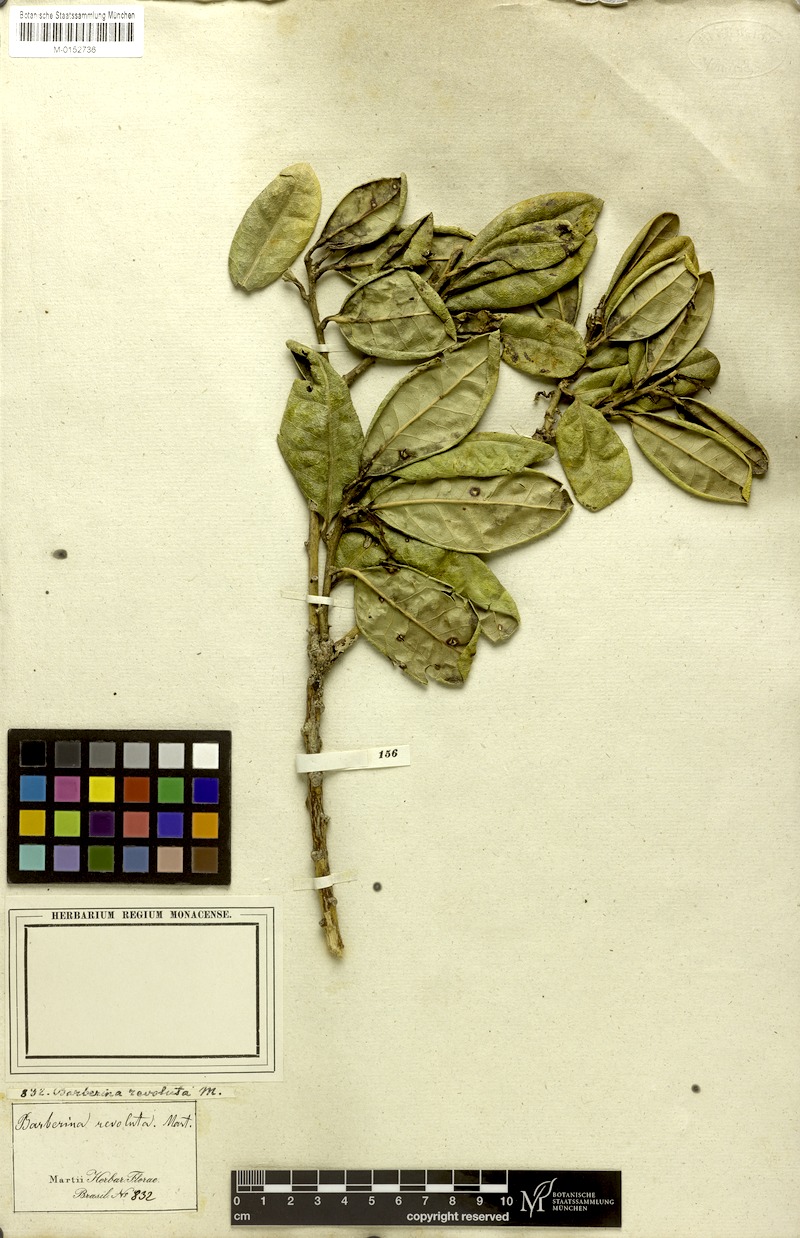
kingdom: Plantae
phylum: Tracheophyta
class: Magnoliopsida
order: Ericales
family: Symplocaceae
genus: Symplocos
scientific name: Symplocos revoluta
